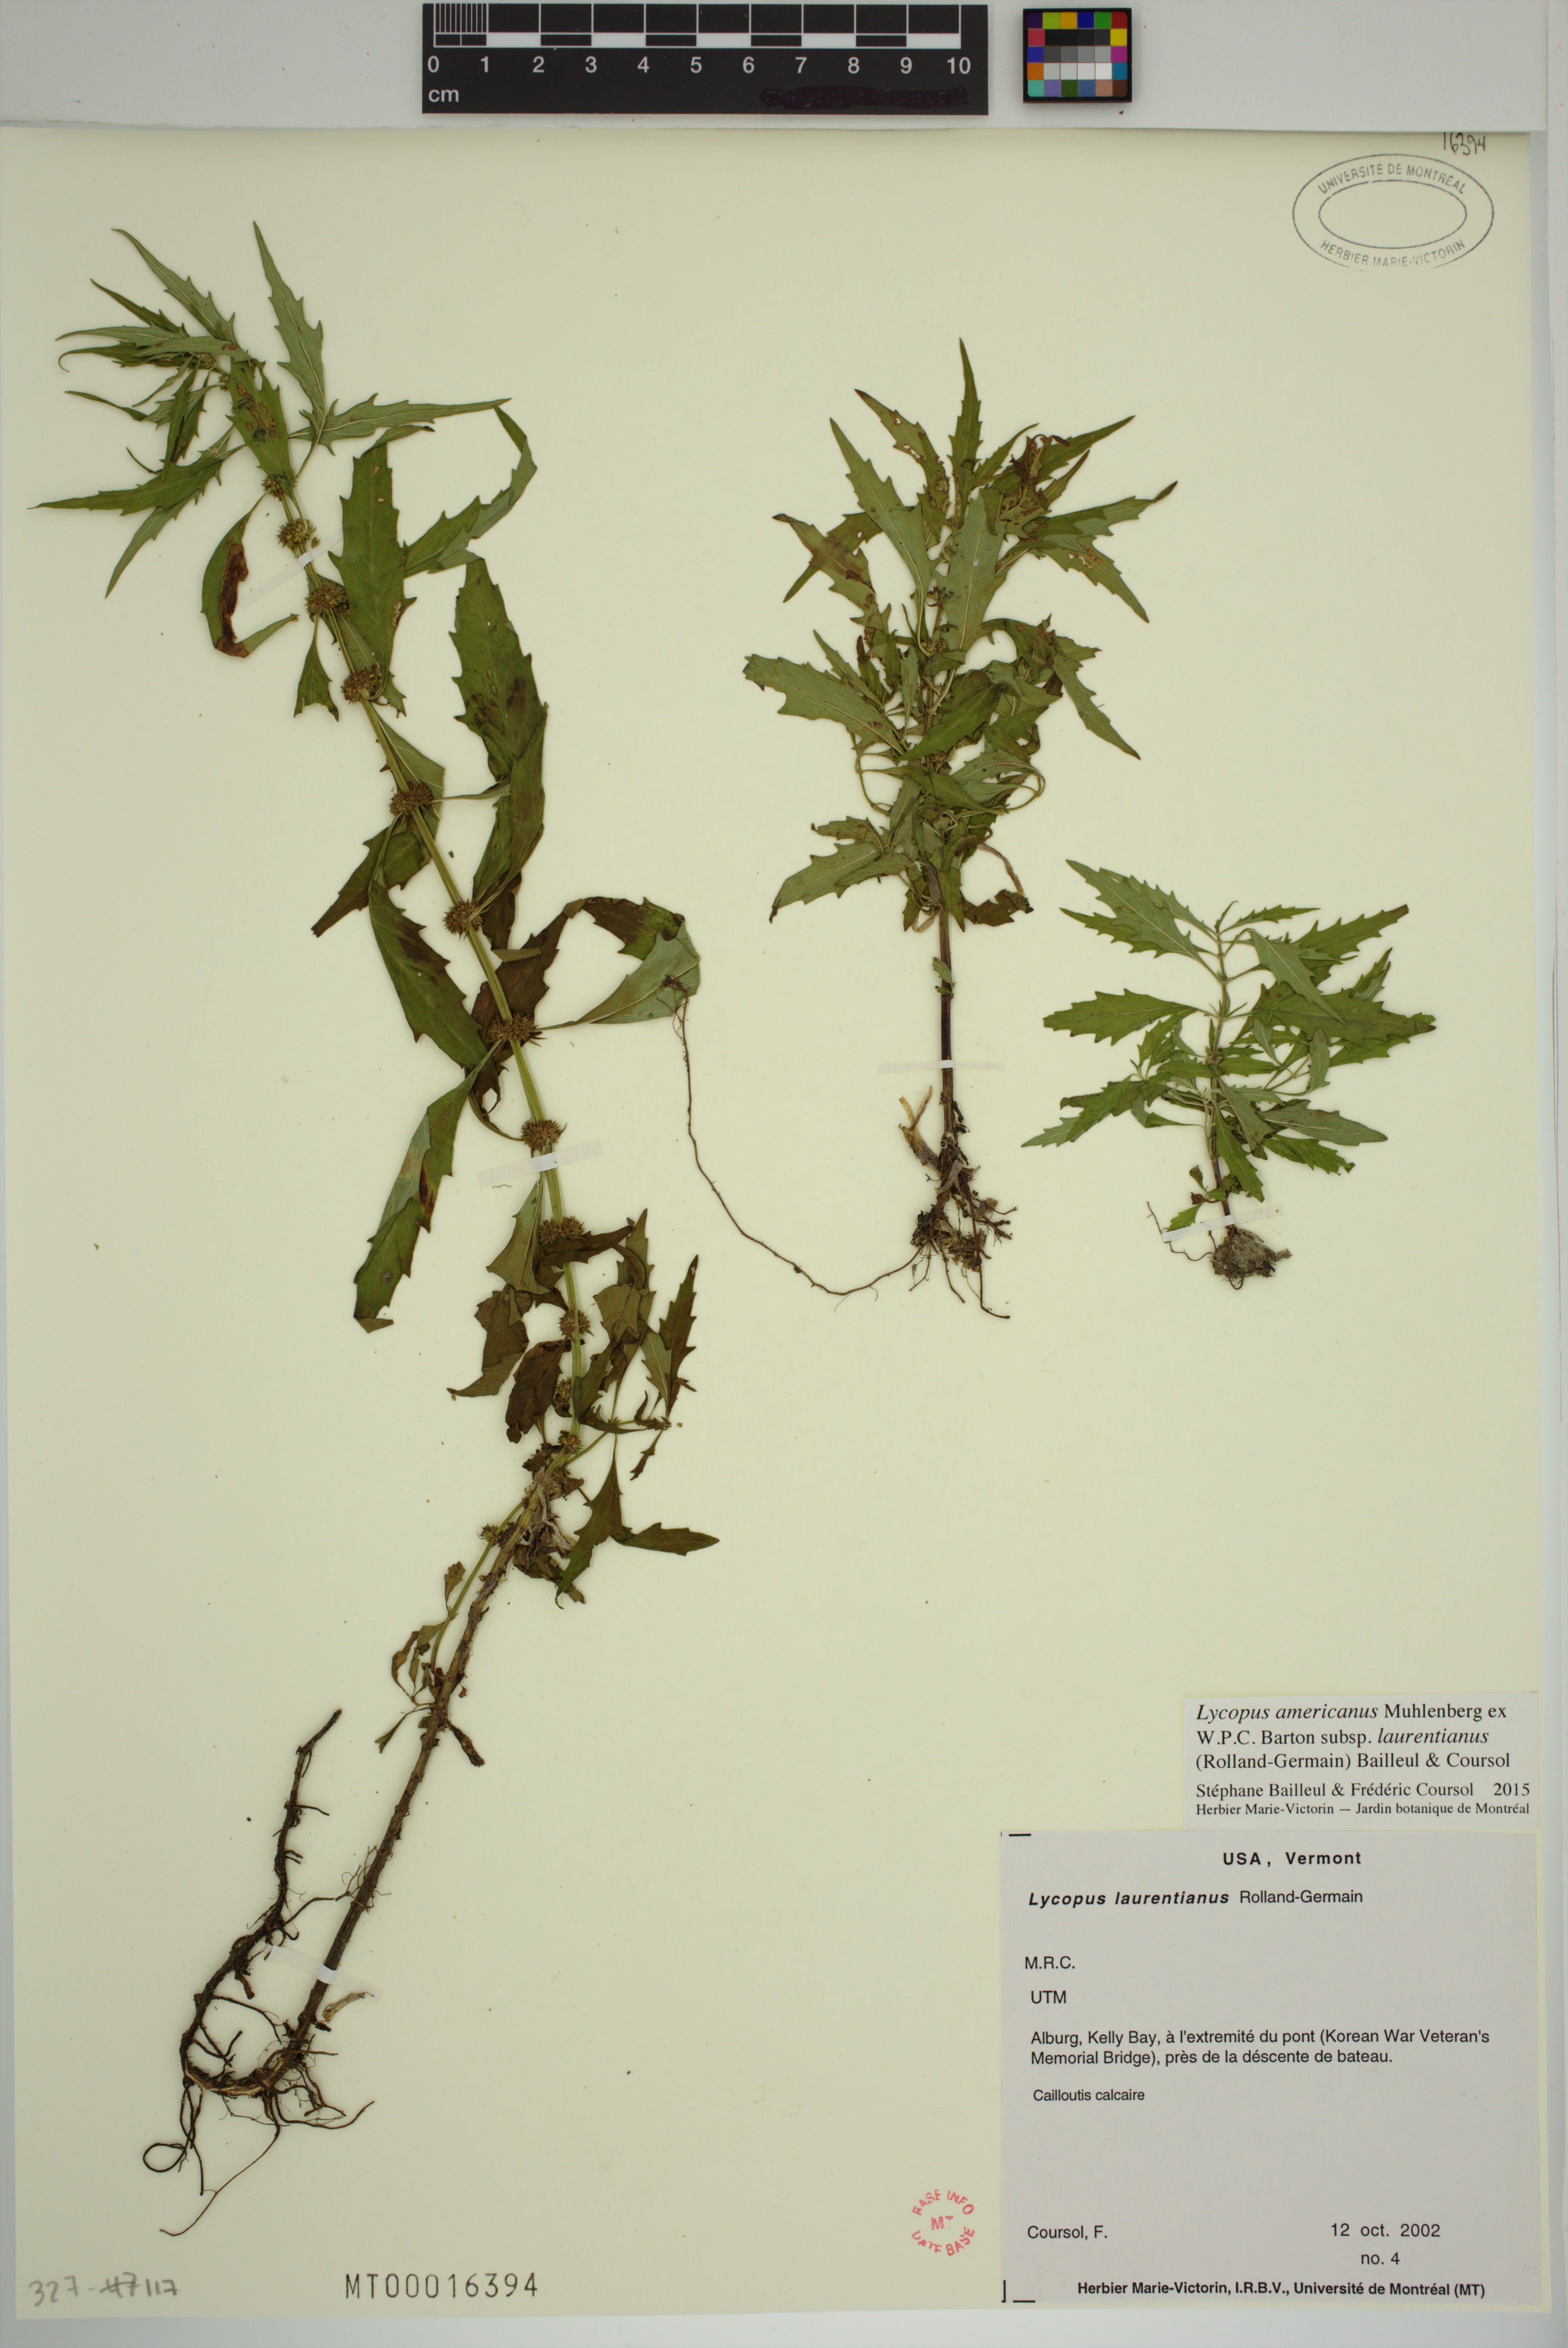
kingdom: Plantae
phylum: Tracheophyta
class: Magnoliopsida
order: Lamiales
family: Lamiaceae
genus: Lycopus
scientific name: Lycopus americanus
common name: American bugleweed
